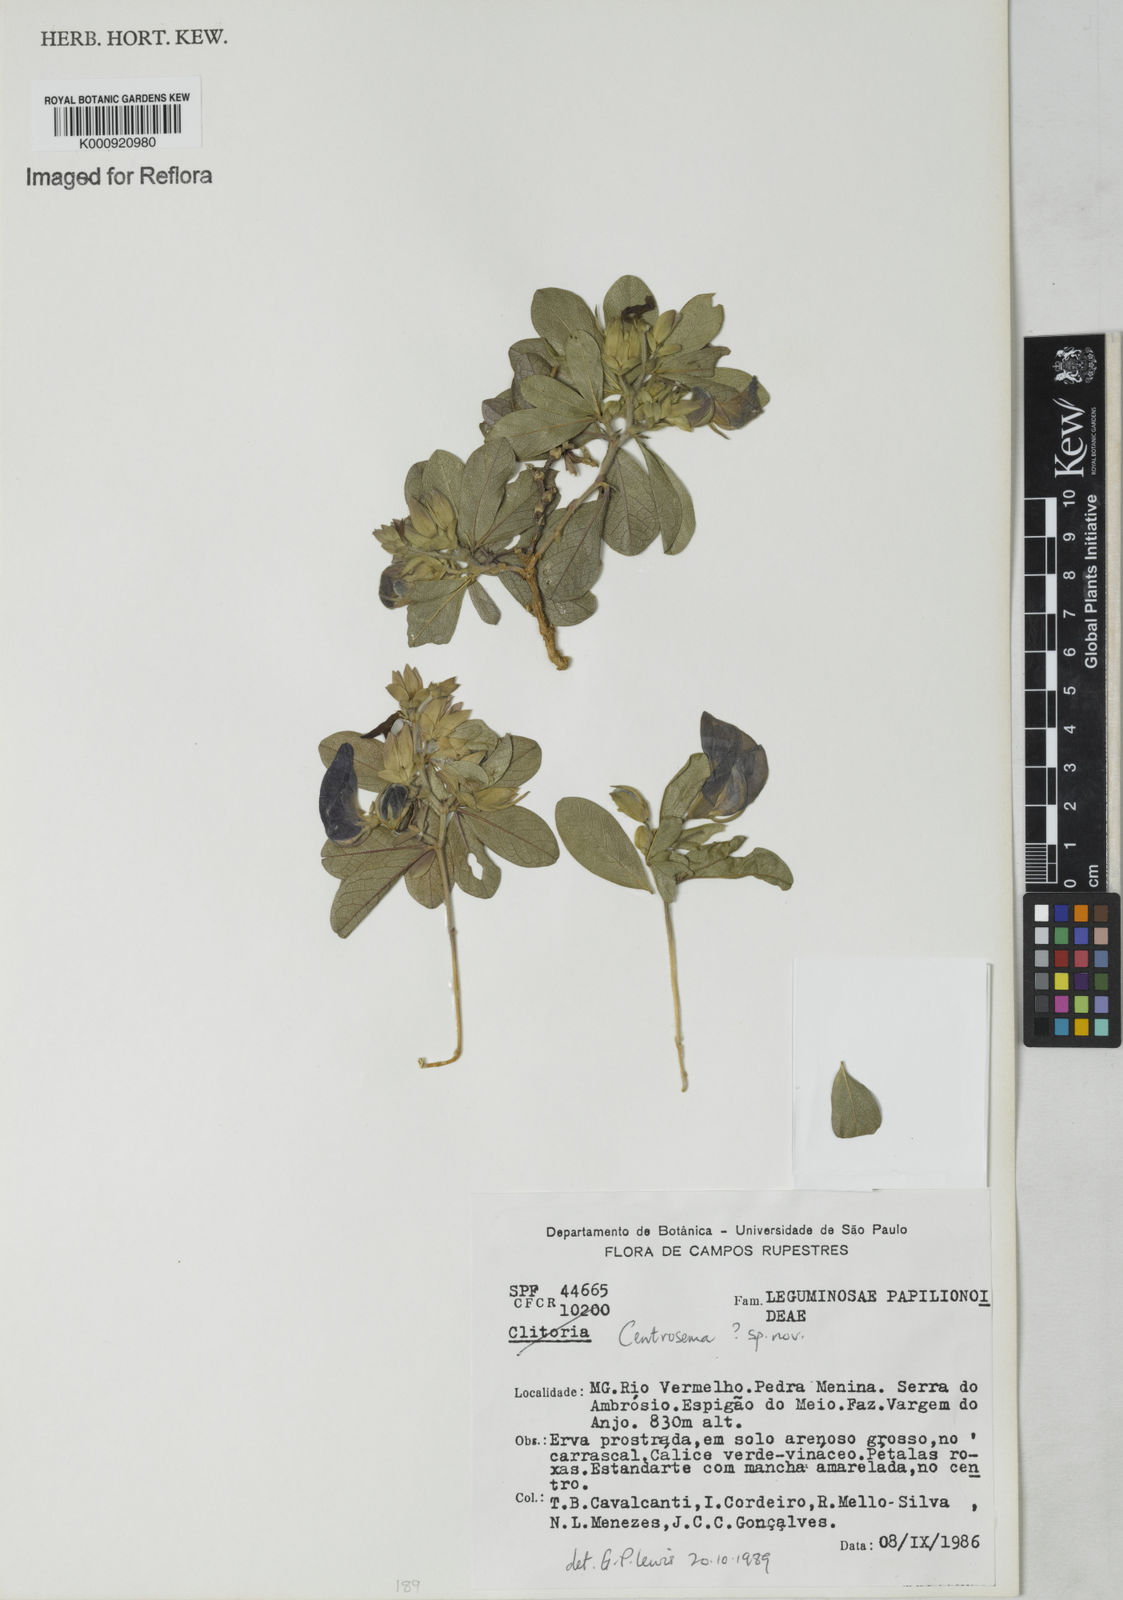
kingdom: Plantae
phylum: Tracheophyta
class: Magnoliopsida
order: Fabales
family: Fabaceae
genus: Centrosema
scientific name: Centrosema
